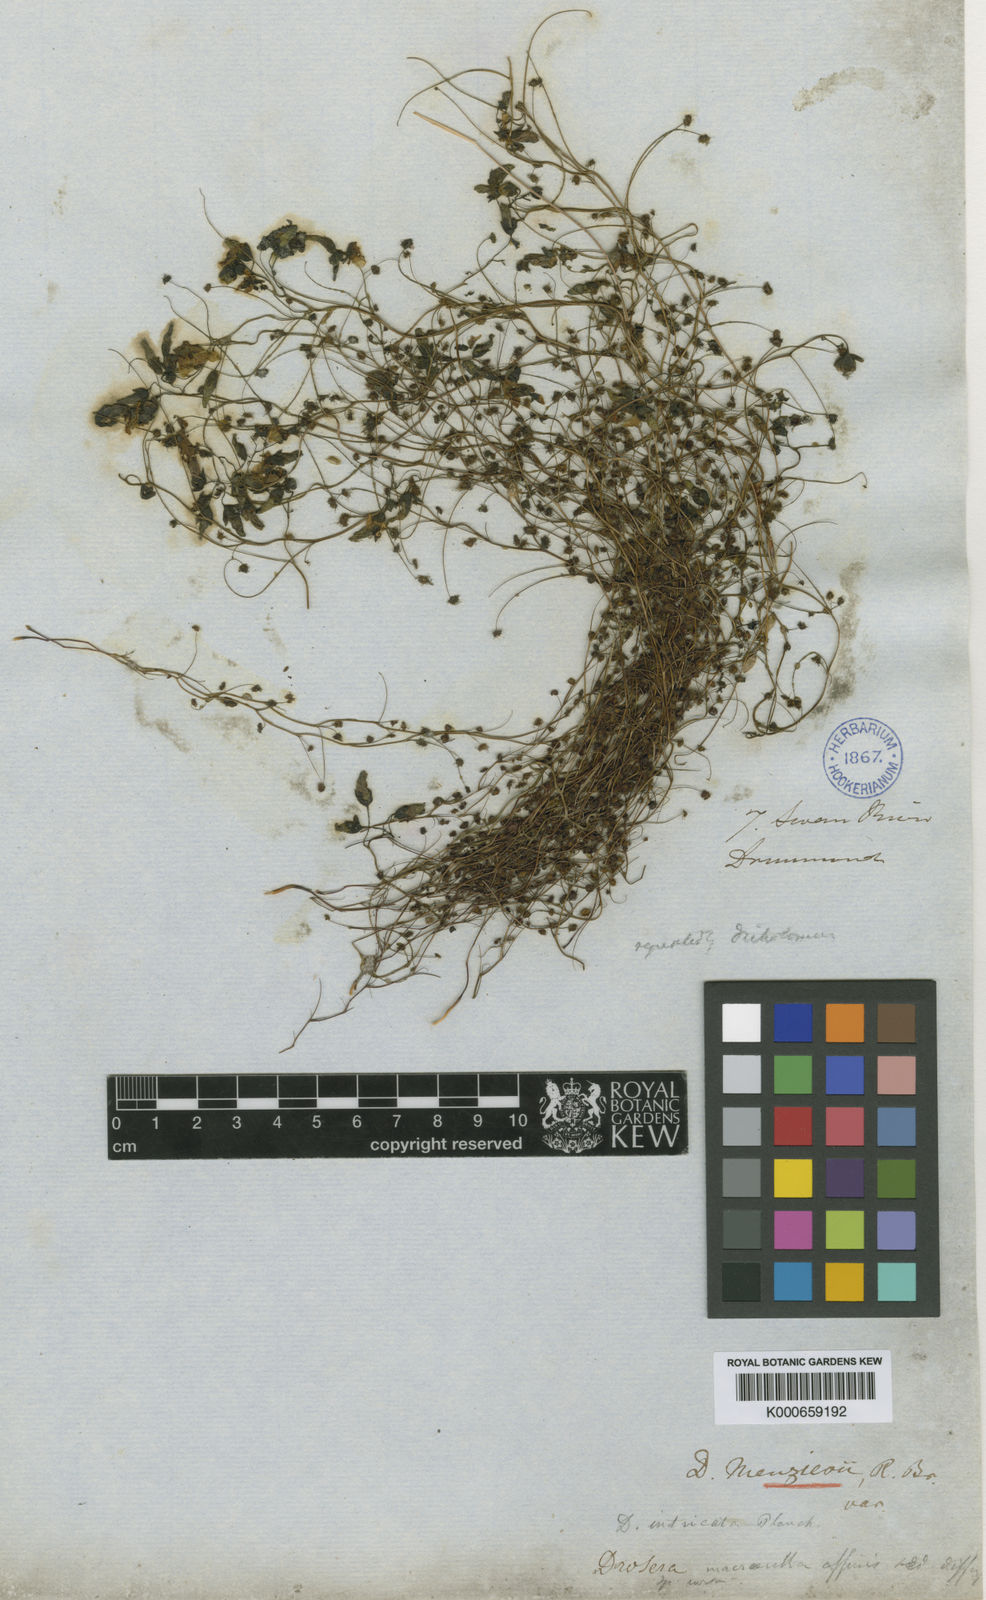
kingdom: Plantae
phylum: Tracheophyta
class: Magnoliopsida
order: Caryophyllales
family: Droseraceae
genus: Drosera
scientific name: Drosera subhirtella
